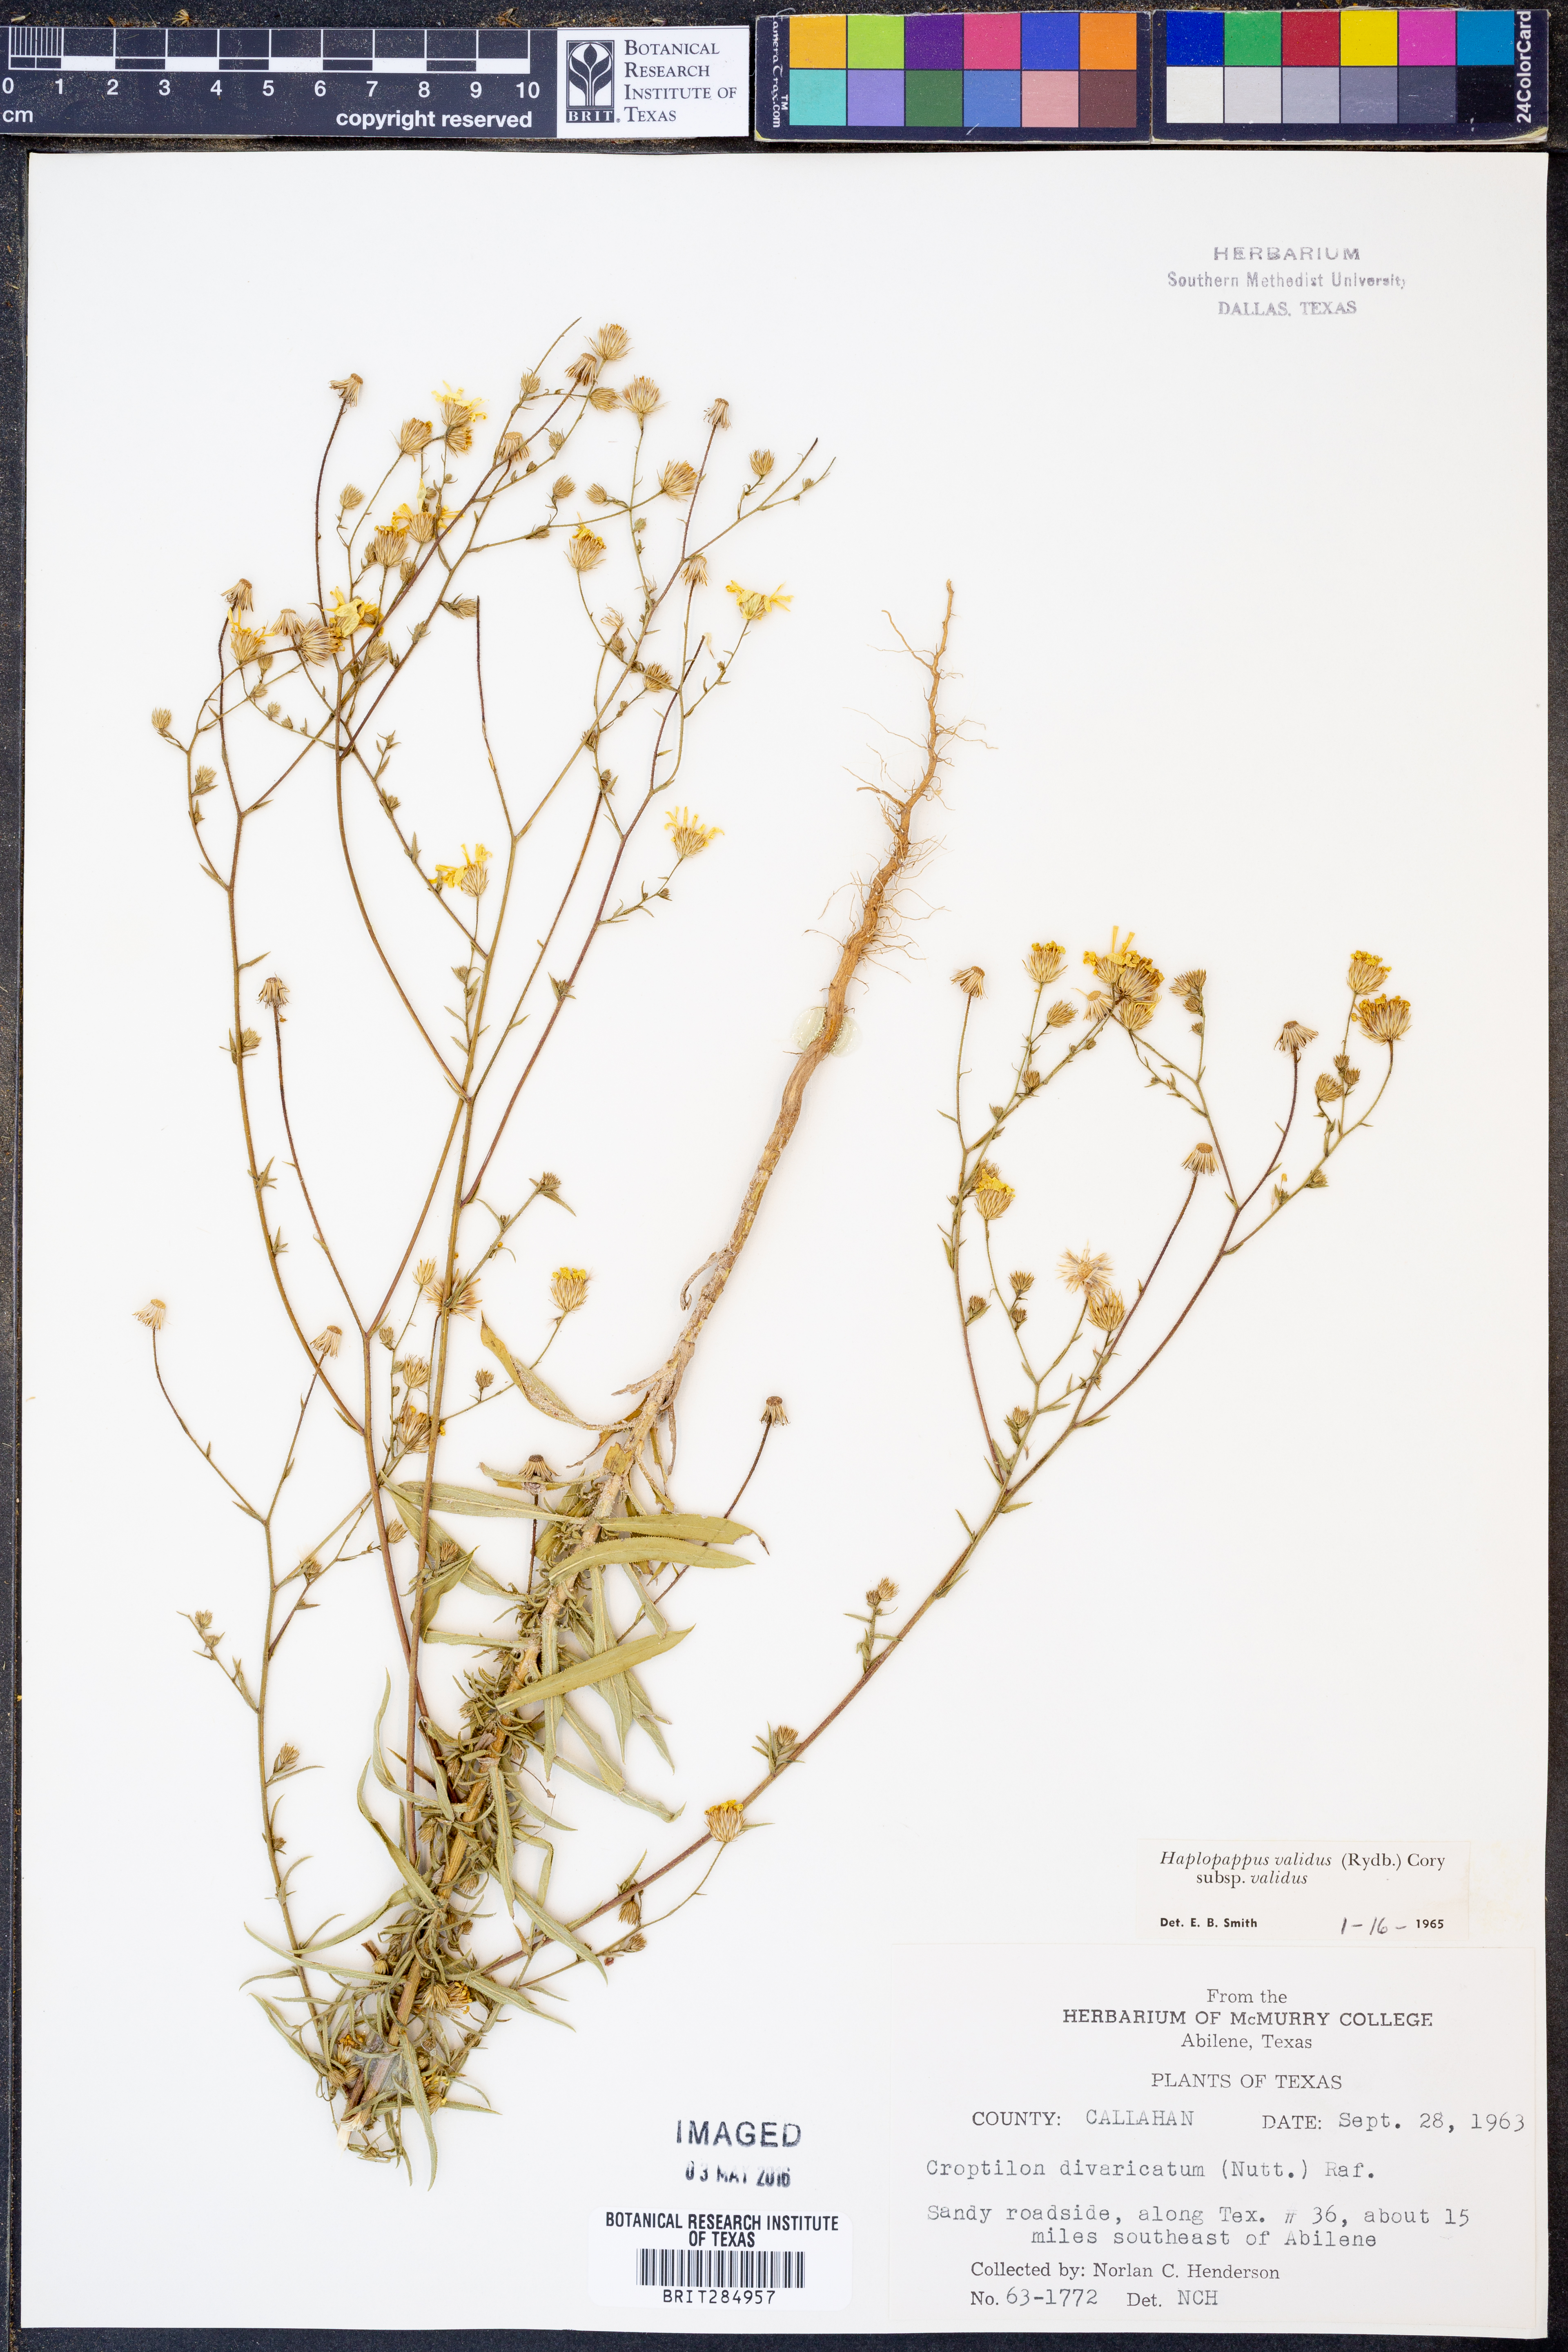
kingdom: Plantae
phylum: Tracheophyta
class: Magnoliopsida
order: Asterales
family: Asteraceae
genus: Croptilon
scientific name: Croptilon hookerianum
